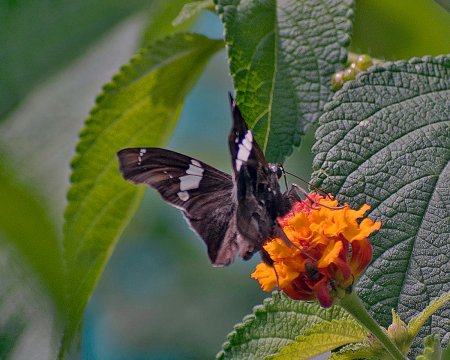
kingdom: Animalia
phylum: Arthropoda
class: Insecta
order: Lepidoptera
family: Hesperiidae
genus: Spathilepia
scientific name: Spathilepia clonius
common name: Falcate Skipper
